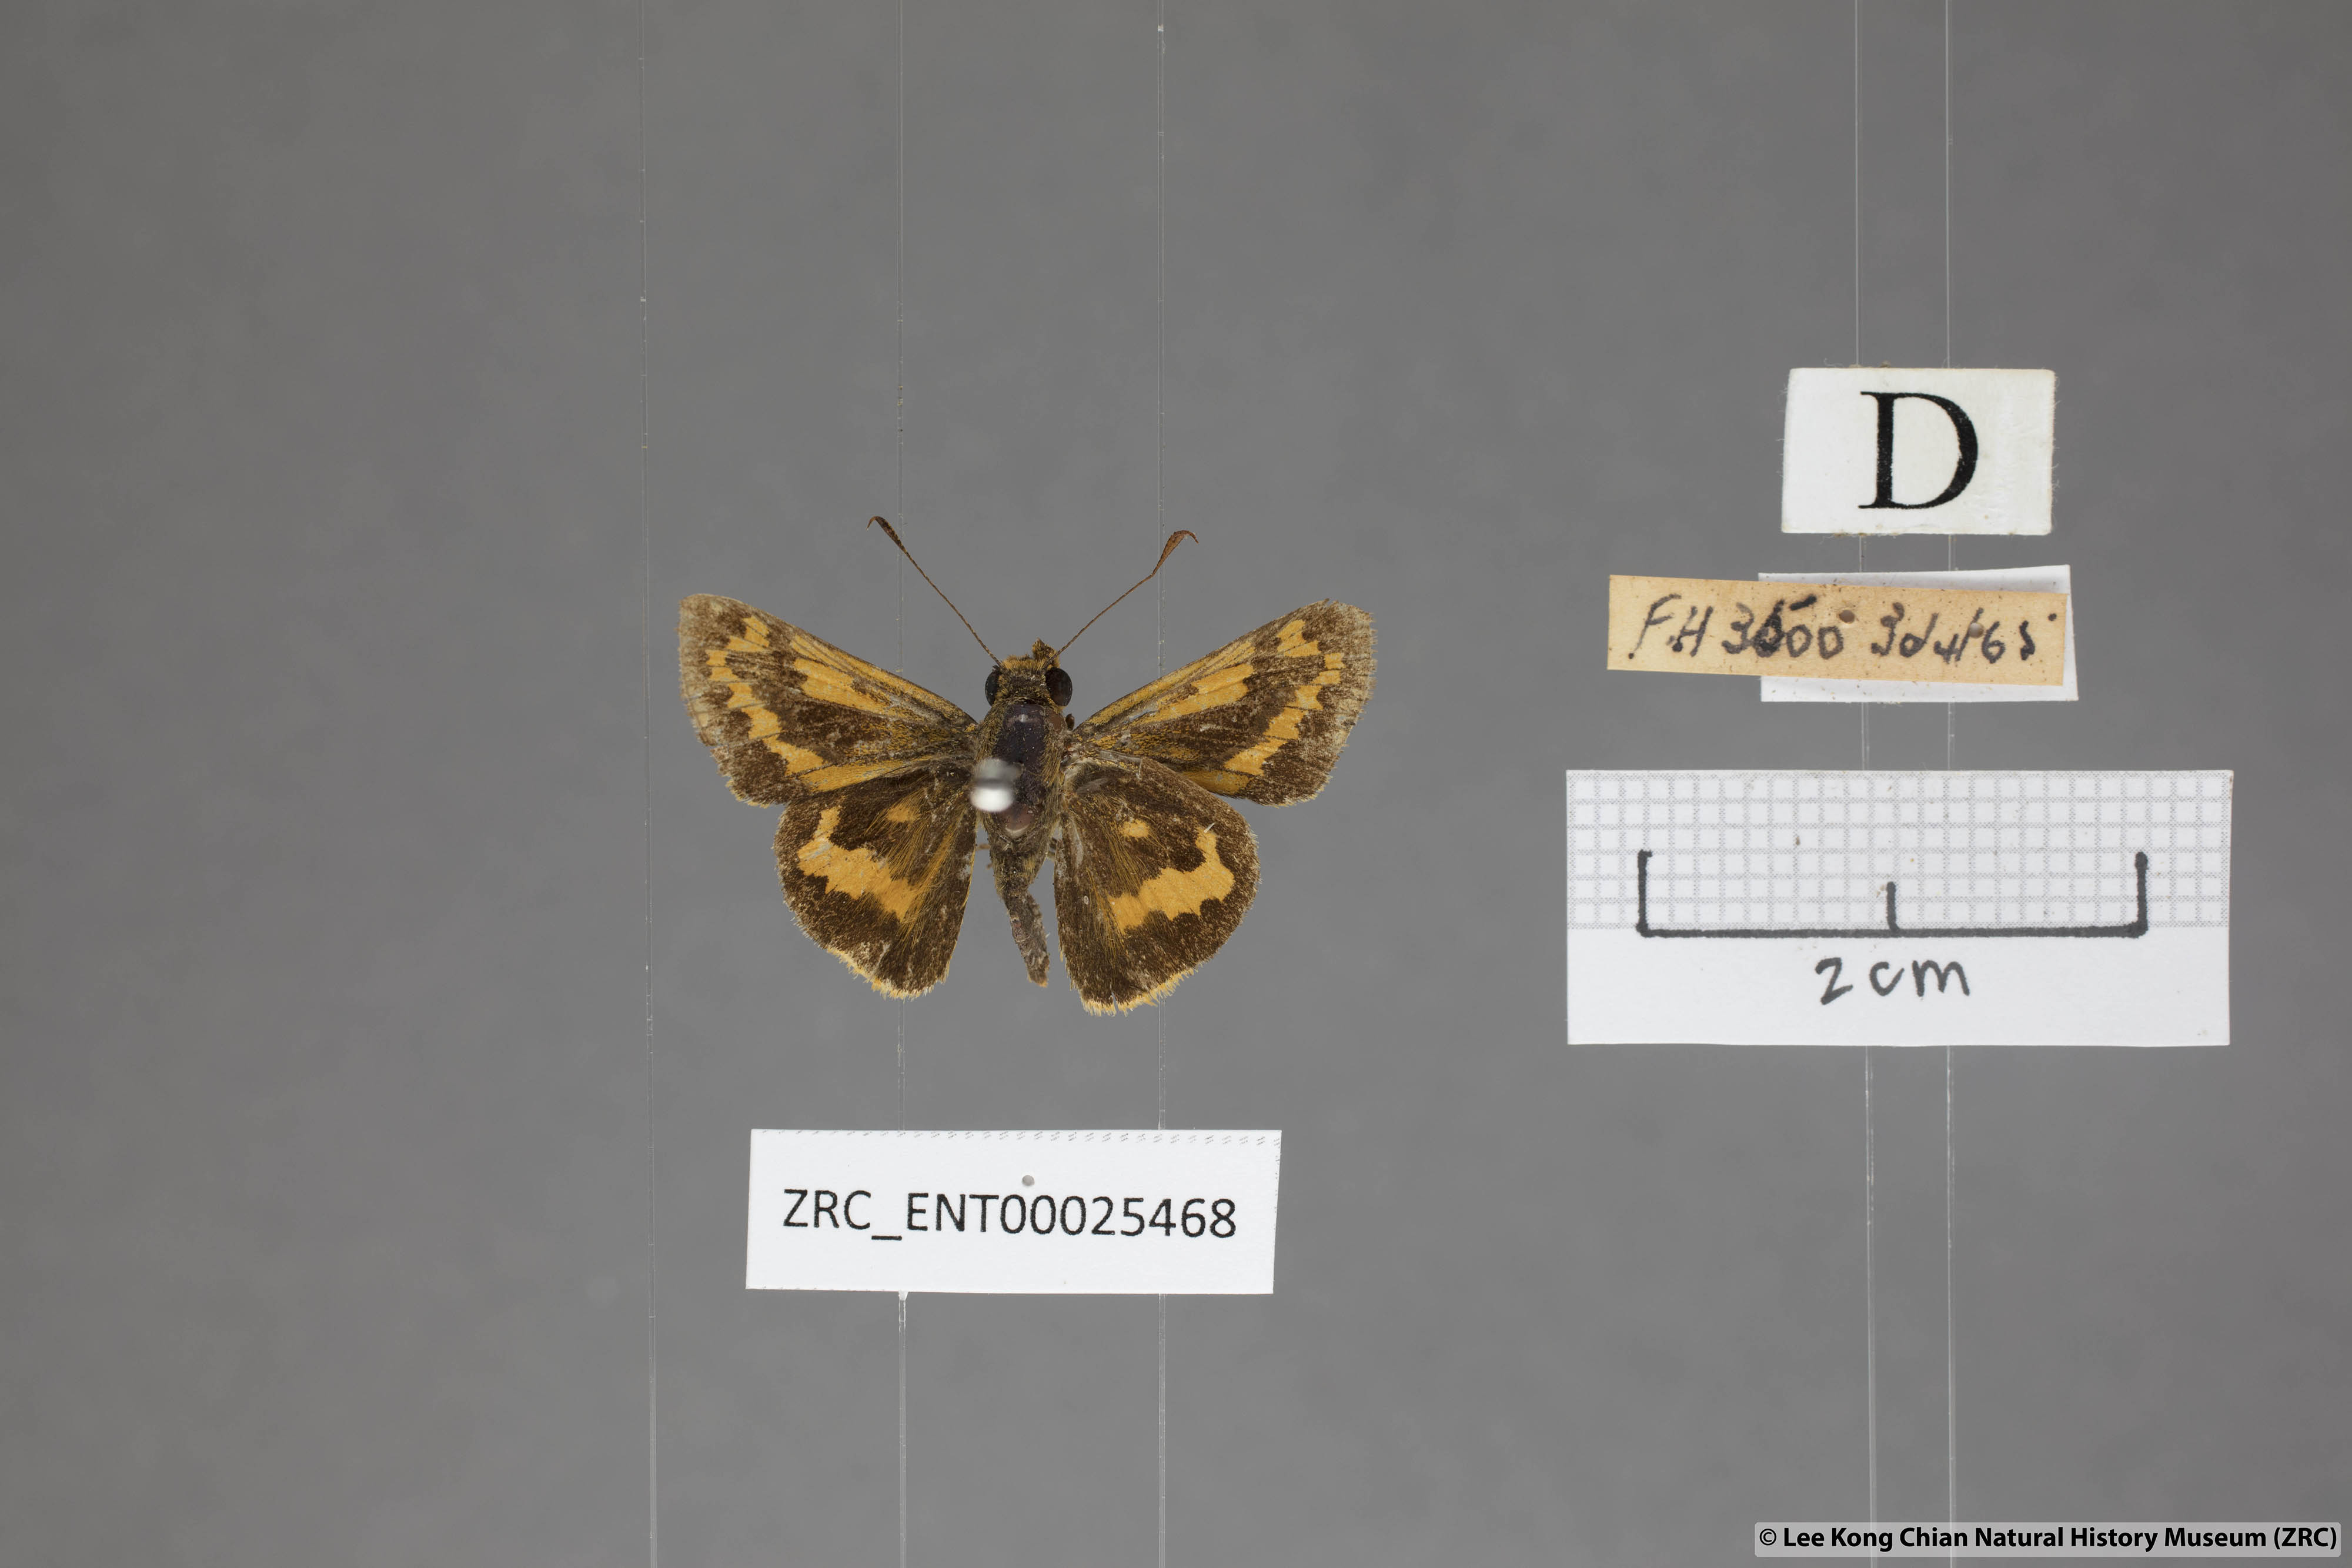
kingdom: Animalia
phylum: Arthropoda
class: Insecta
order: Lepidoptera
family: Hesperiidae
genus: Potanthus
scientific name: Potanthus rectifasciata
